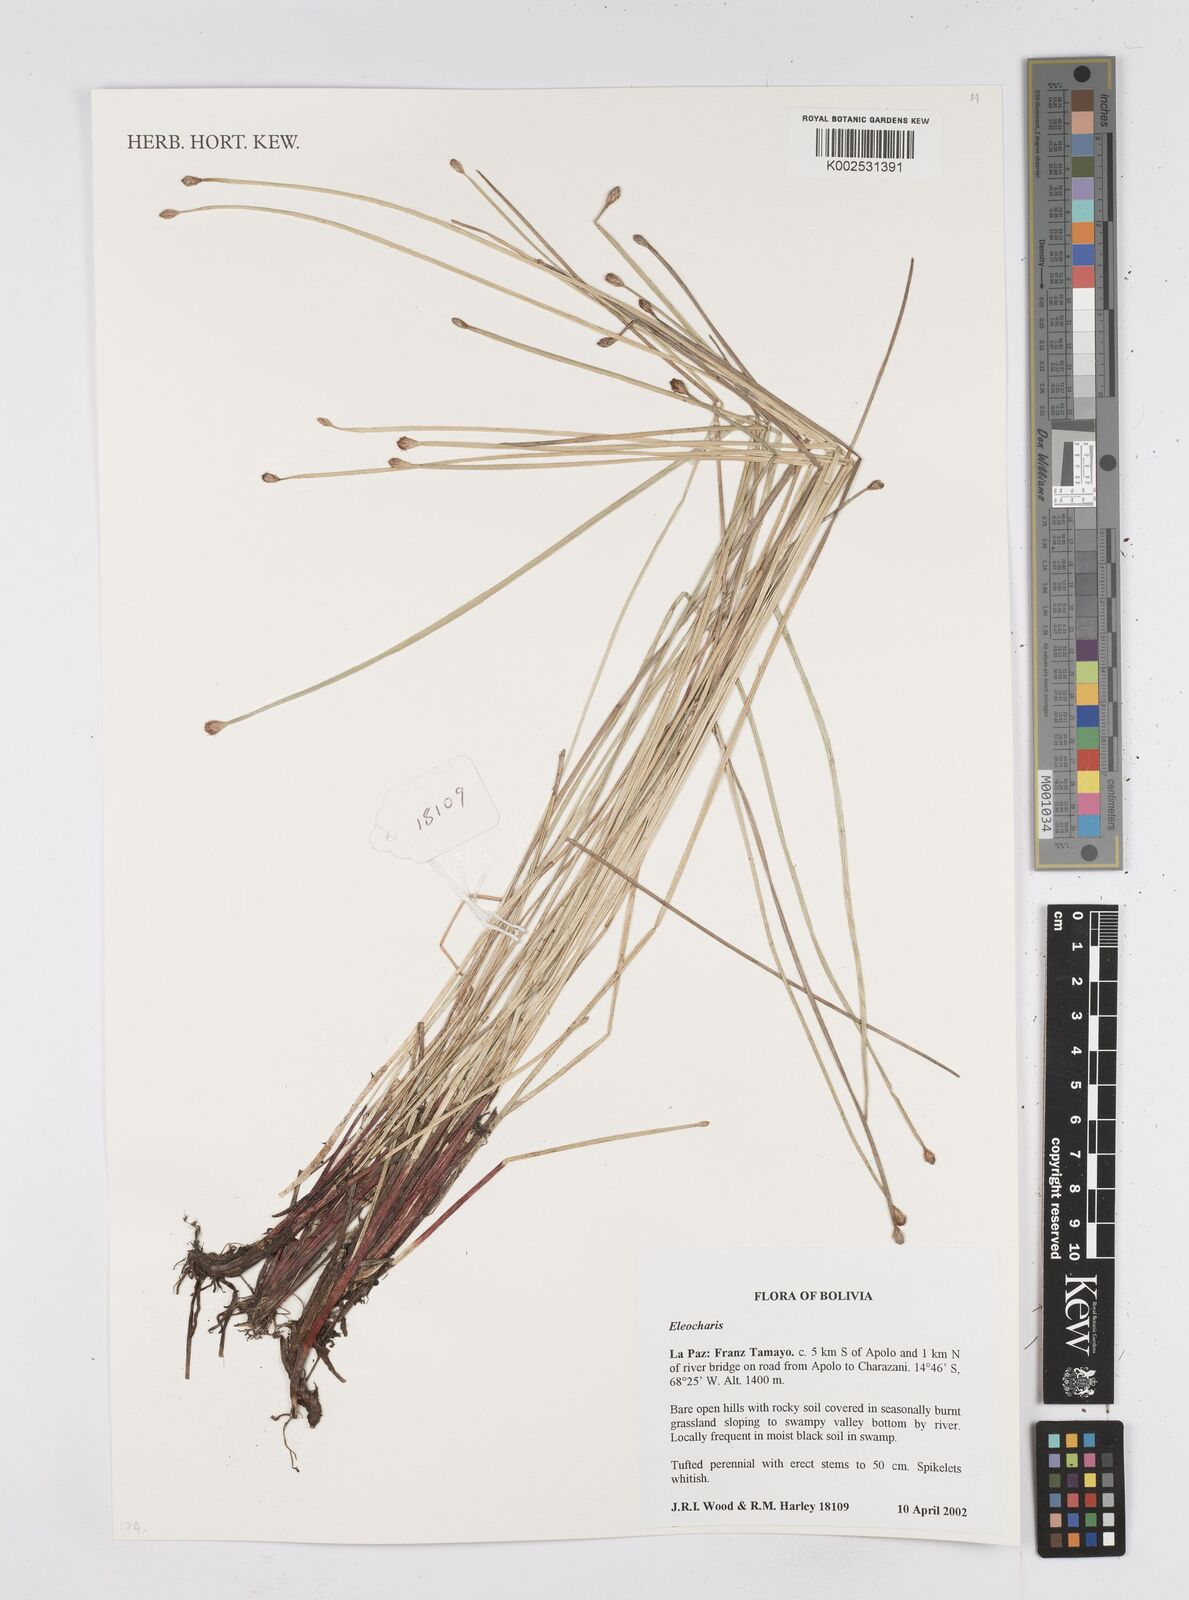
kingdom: Plantae
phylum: Tracheophyta
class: Liliopsida
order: Poales
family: Cyperaceae
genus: Eleocharis
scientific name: Eleocharis
